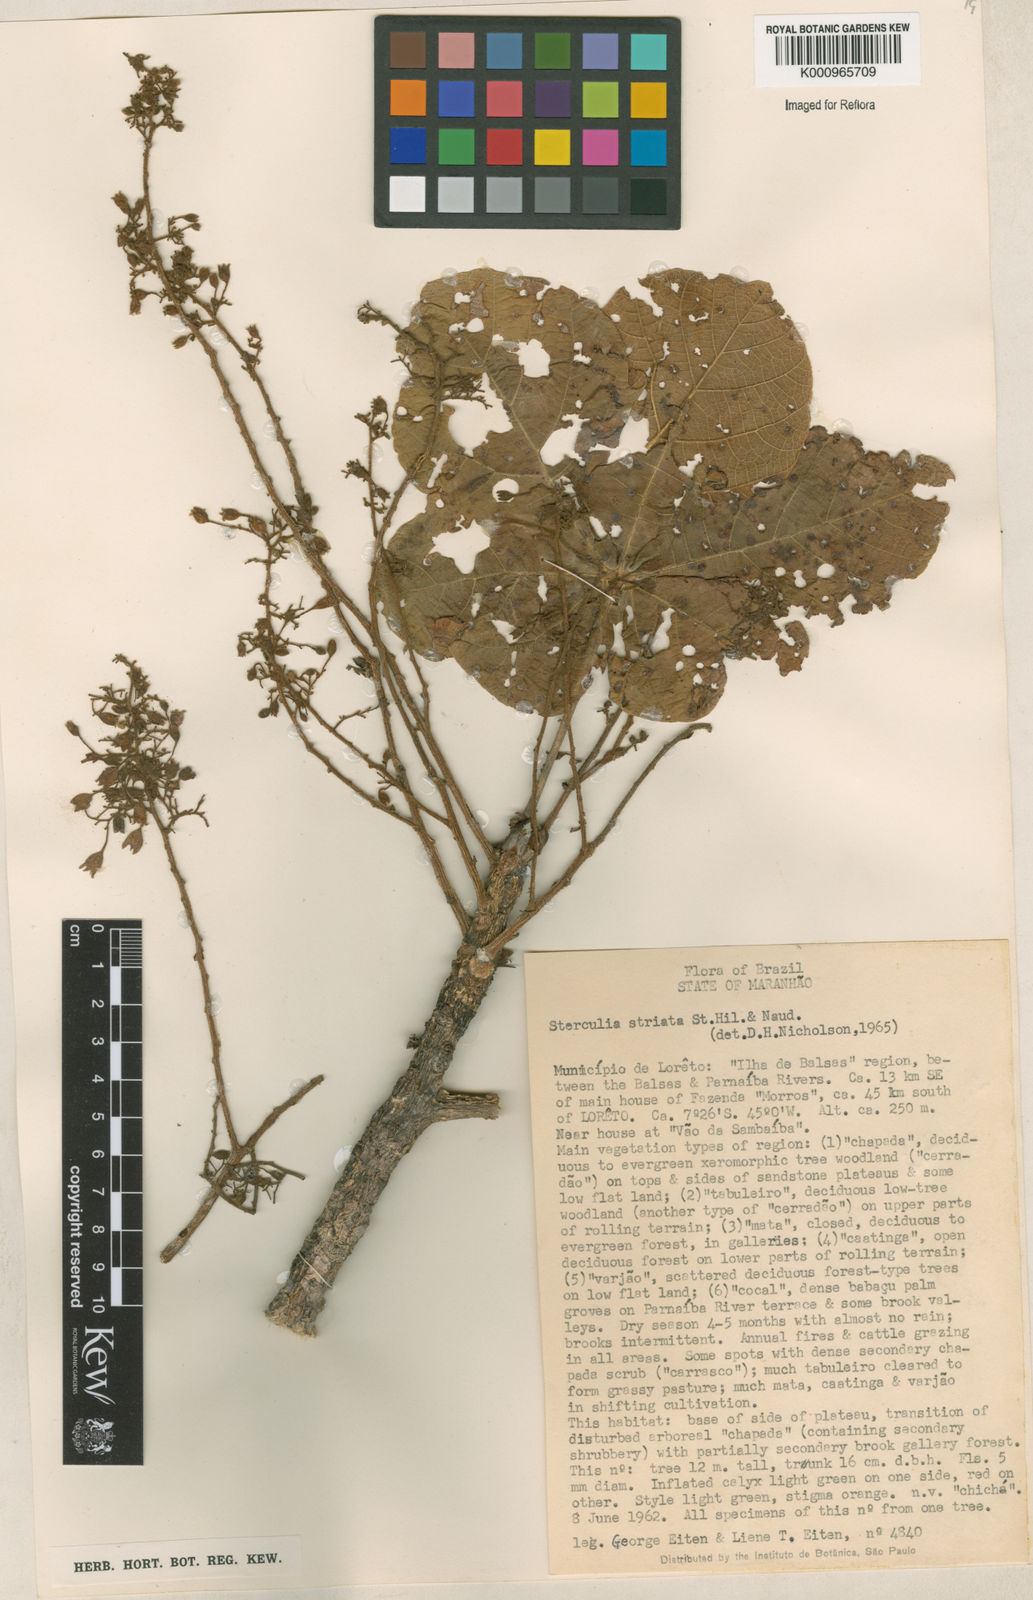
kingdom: Plantae
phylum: Tracheophyta
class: Magnoliopsida
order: Malvales
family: Malvaceae
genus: Sterculia
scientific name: Sterculia striata
